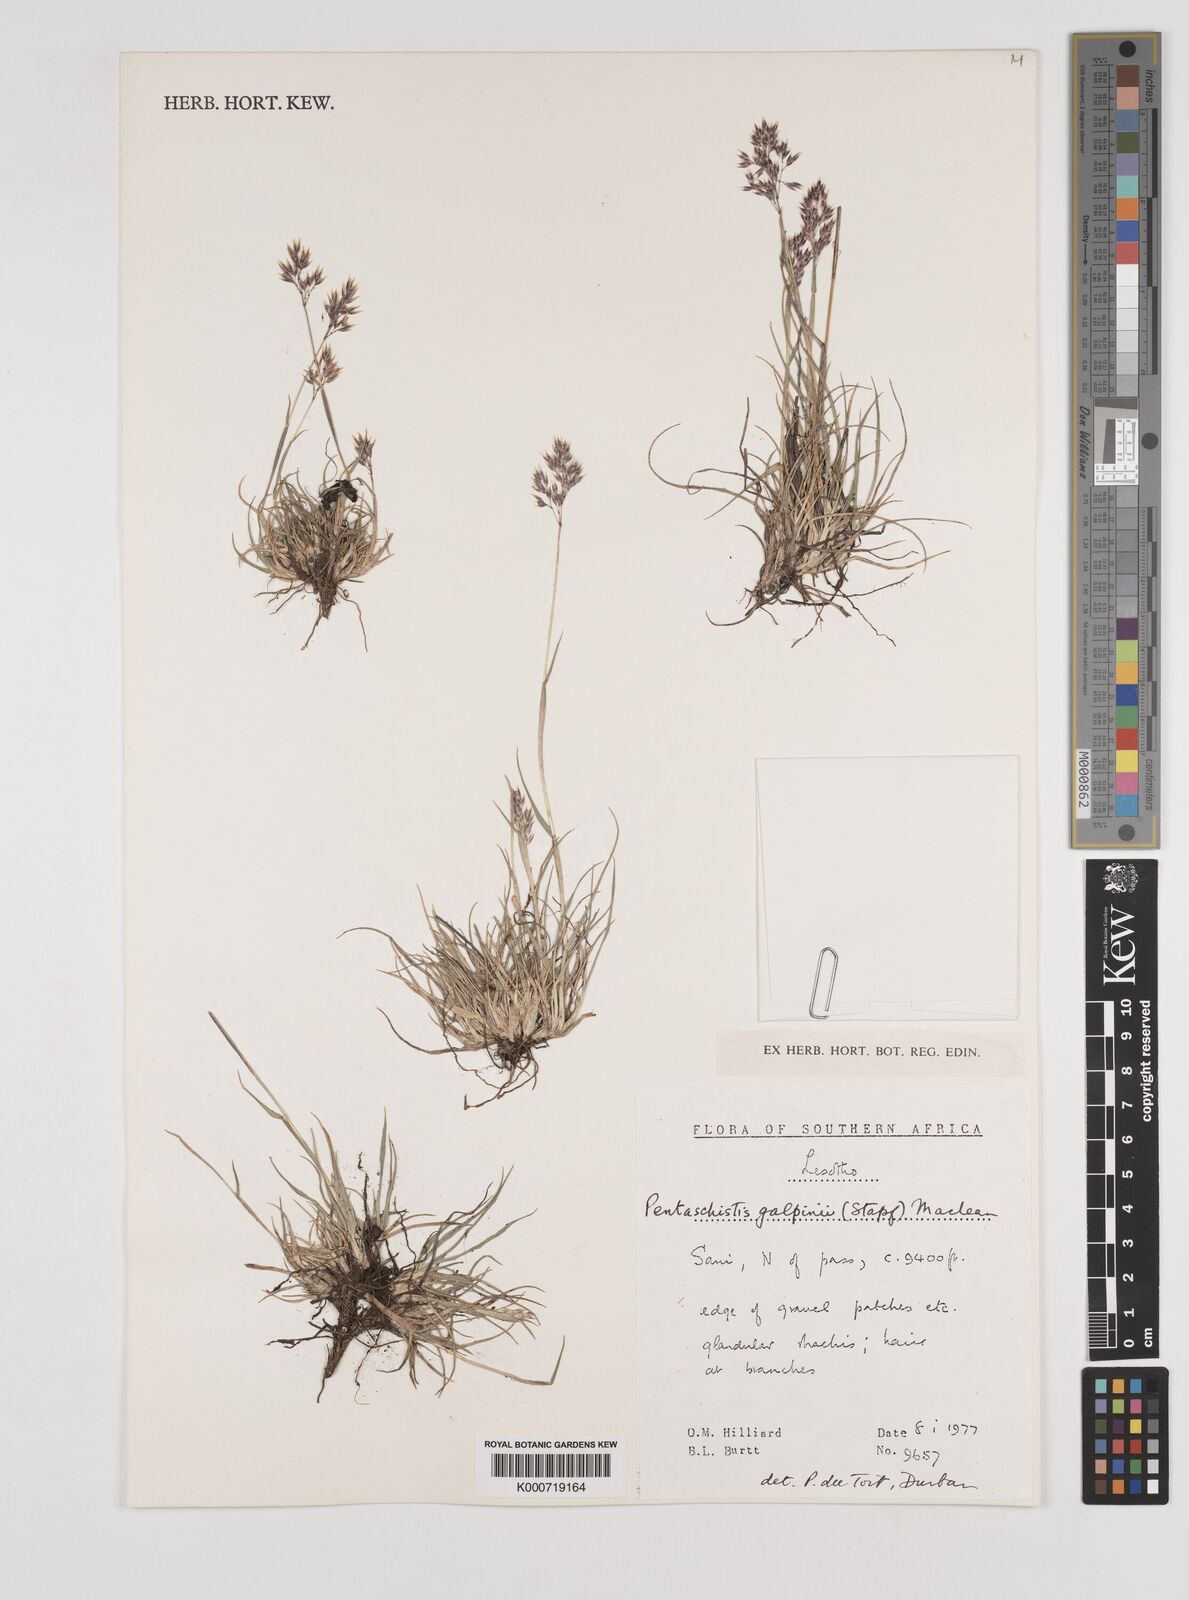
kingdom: Plantae
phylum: Tracheophyta
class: Liliopsida
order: Poales
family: Poaceae
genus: Pentameris
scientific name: Pentameris galpinii
